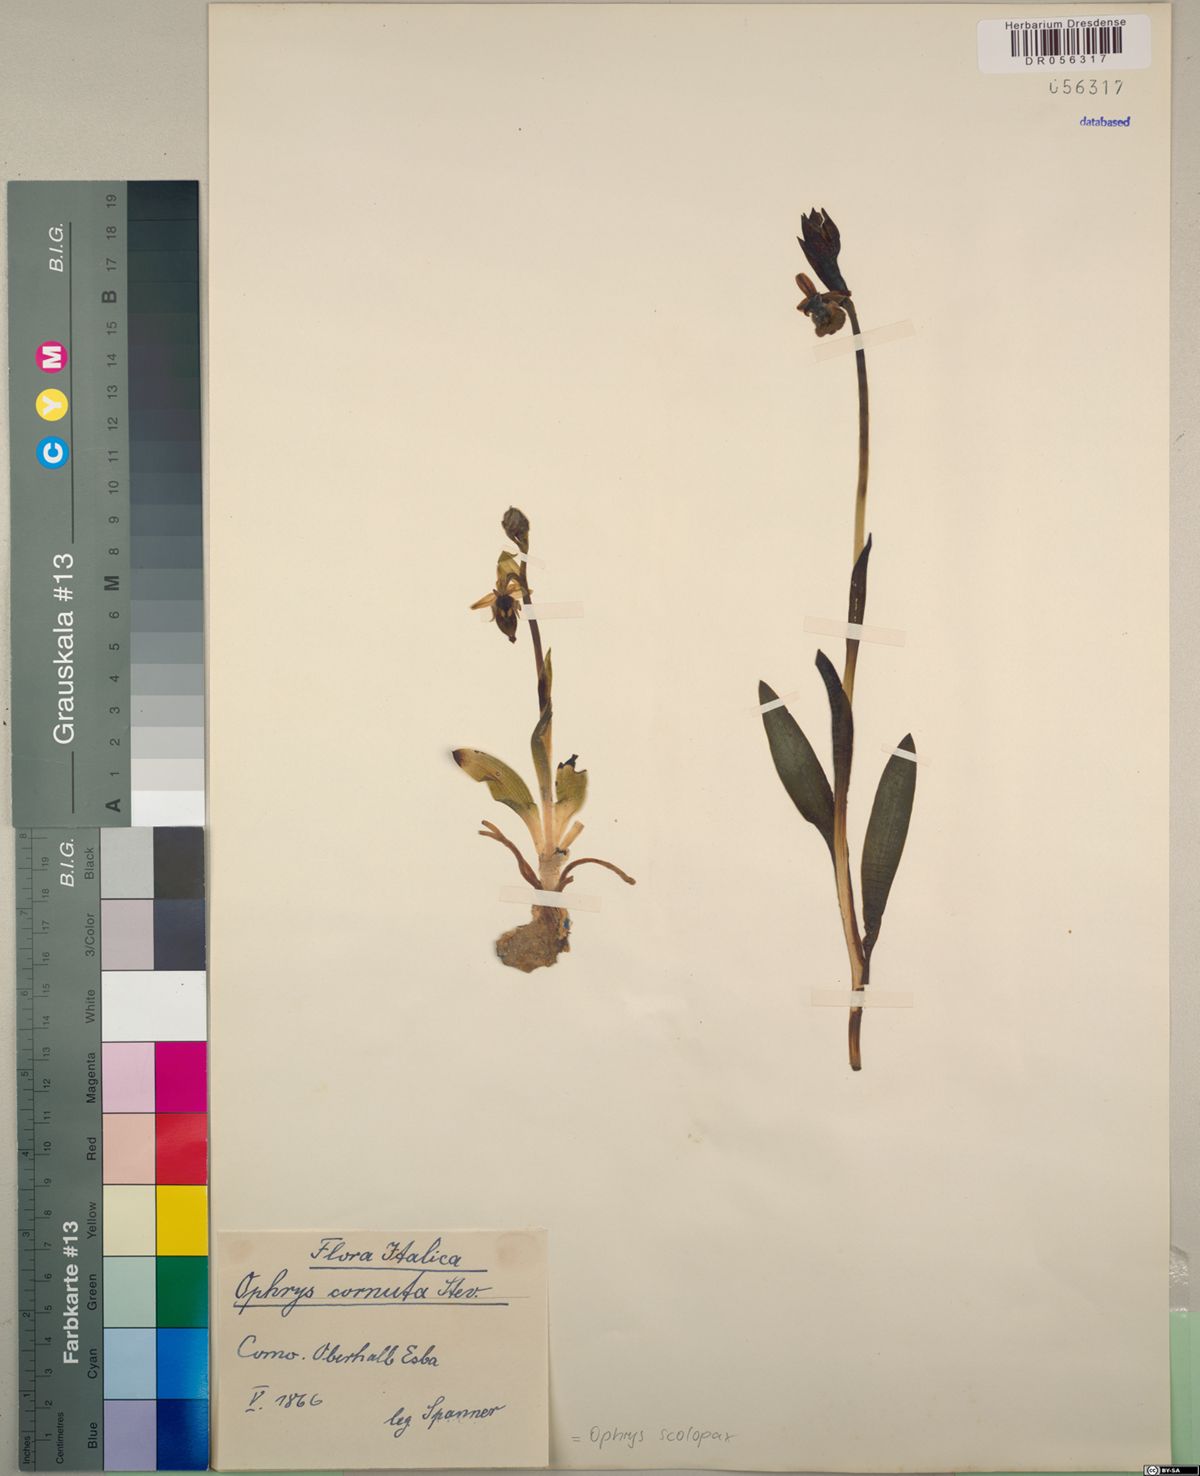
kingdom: Plantae
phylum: Tracheophyta
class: Liliopsida
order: Asparagales
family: Orchidaceae
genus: Ophrys
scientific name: Ophrys scolopax
